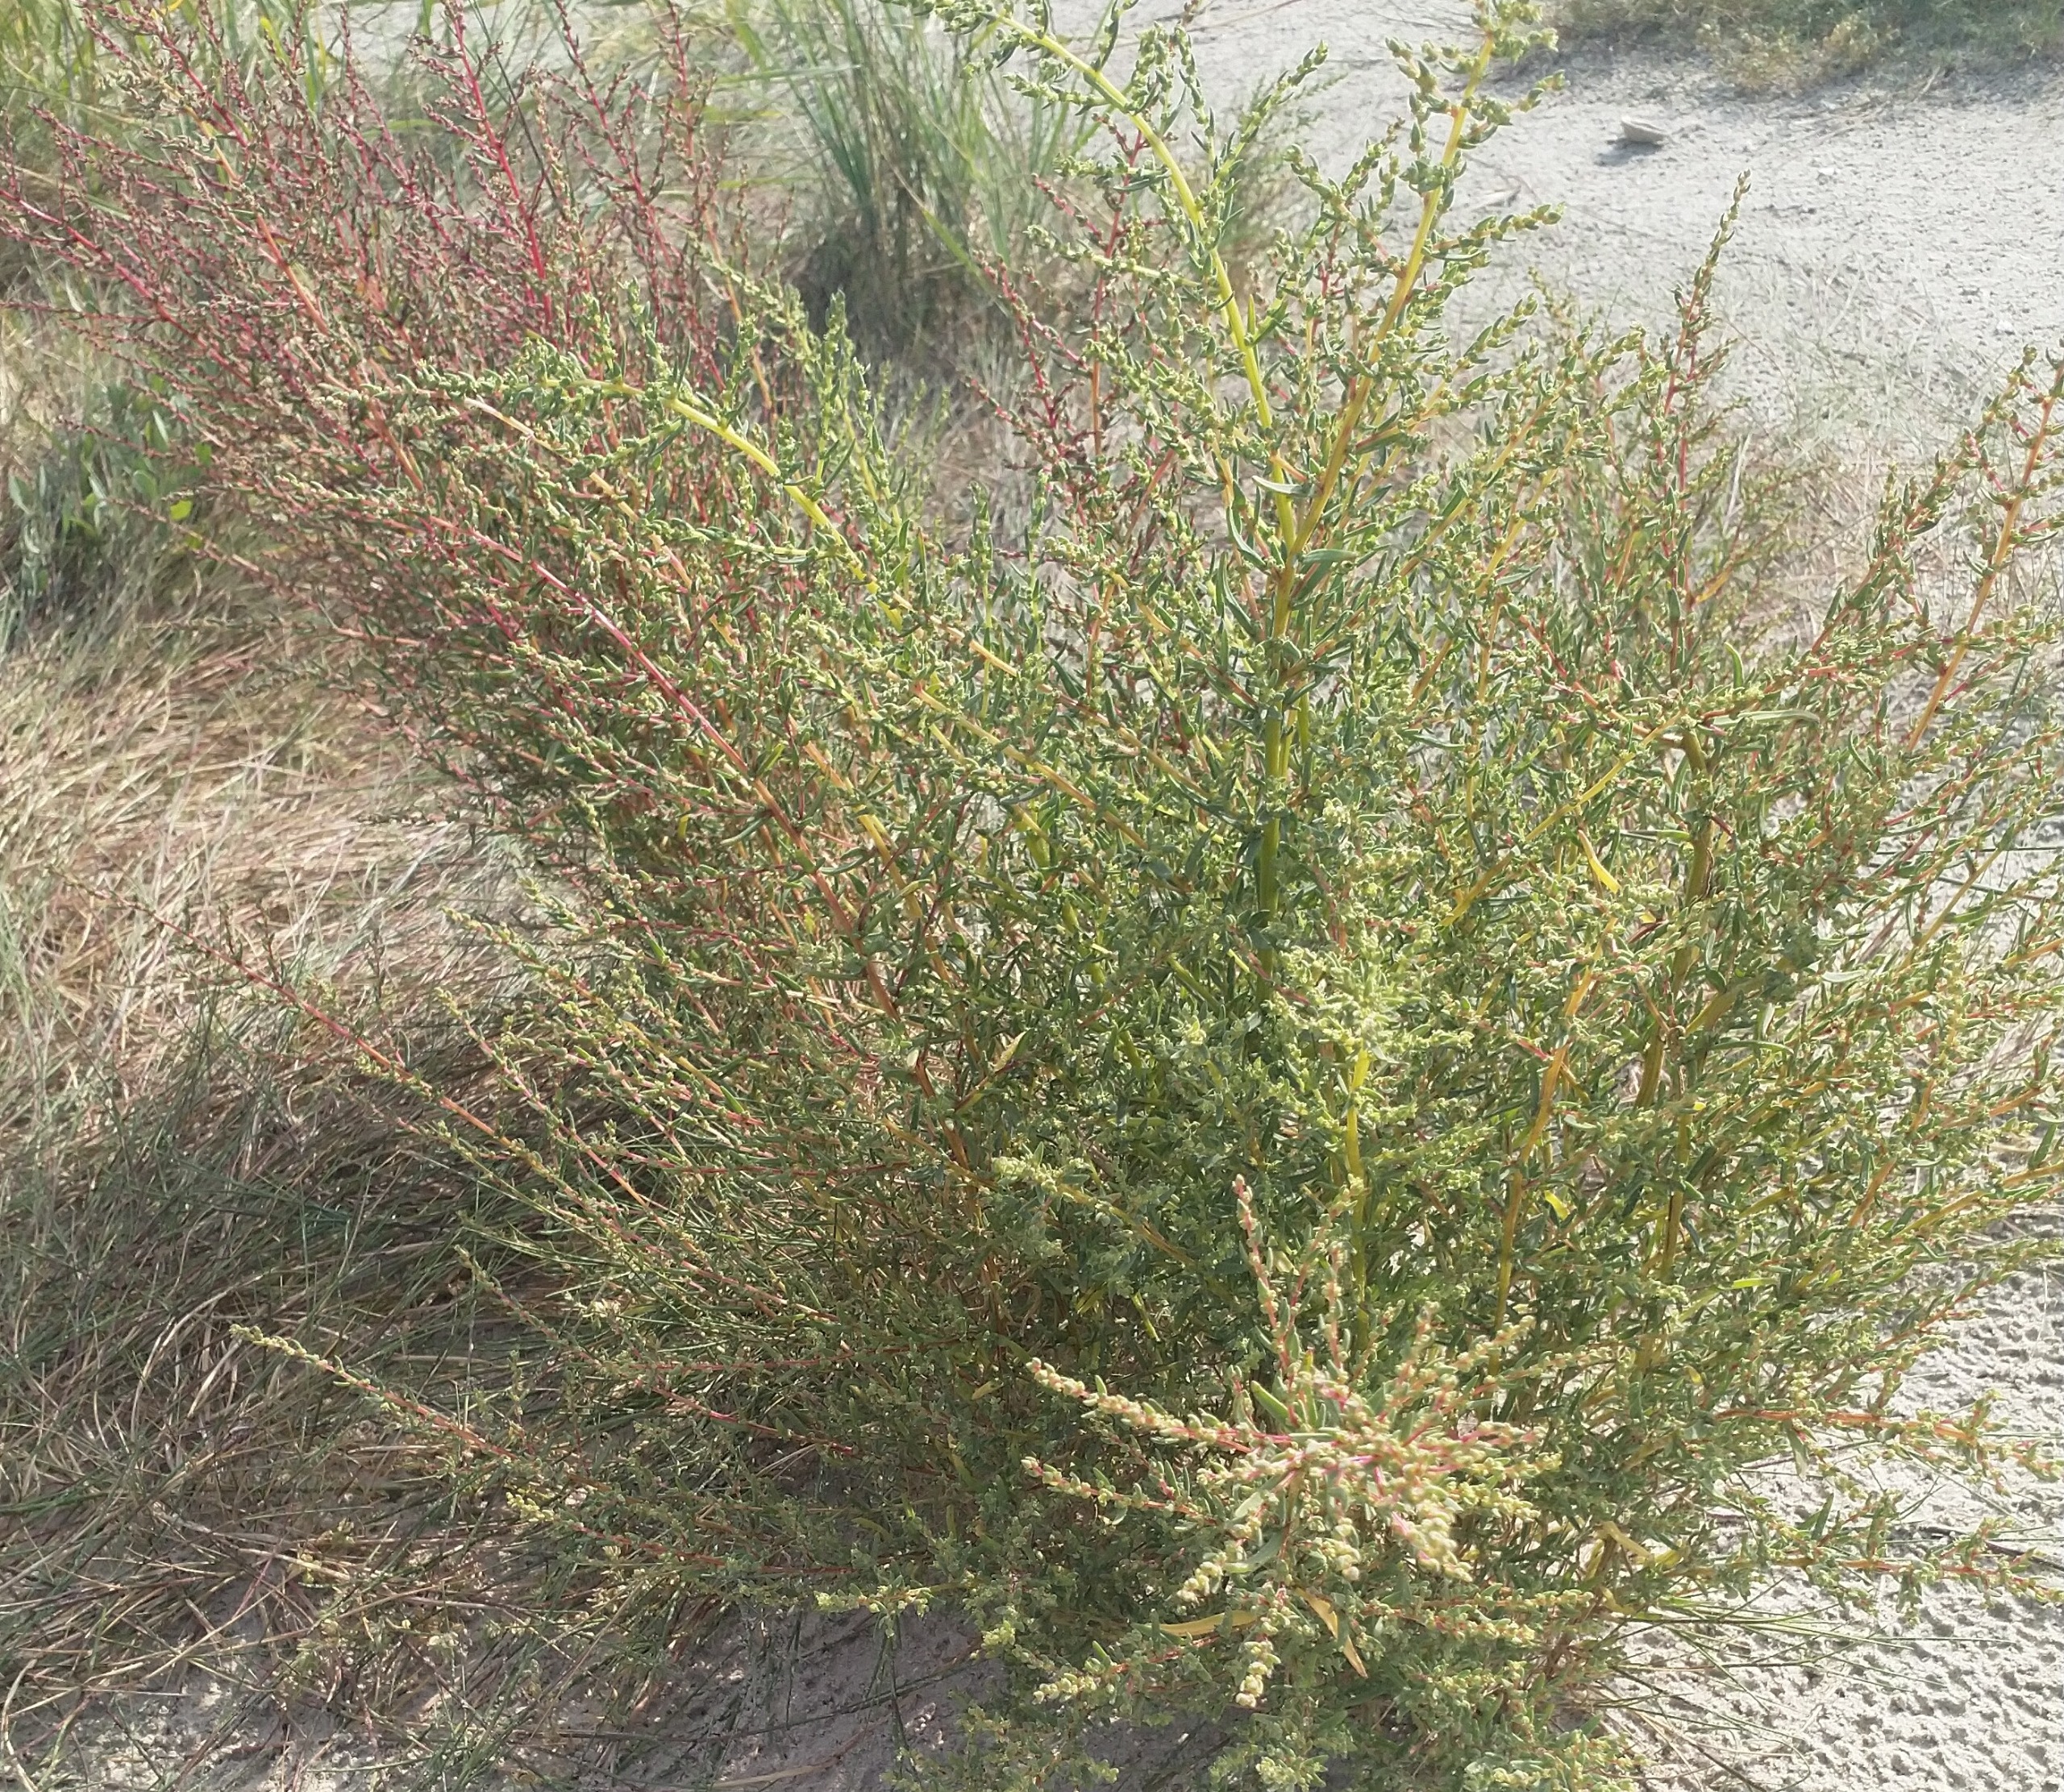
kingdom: Plantae
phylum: Tracheophyta
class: Magnoliopsida
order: Caryophyllales
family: Amaranthaceae
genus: Suaeda
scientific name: Suaeda maritima
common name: Strandgåsefod
